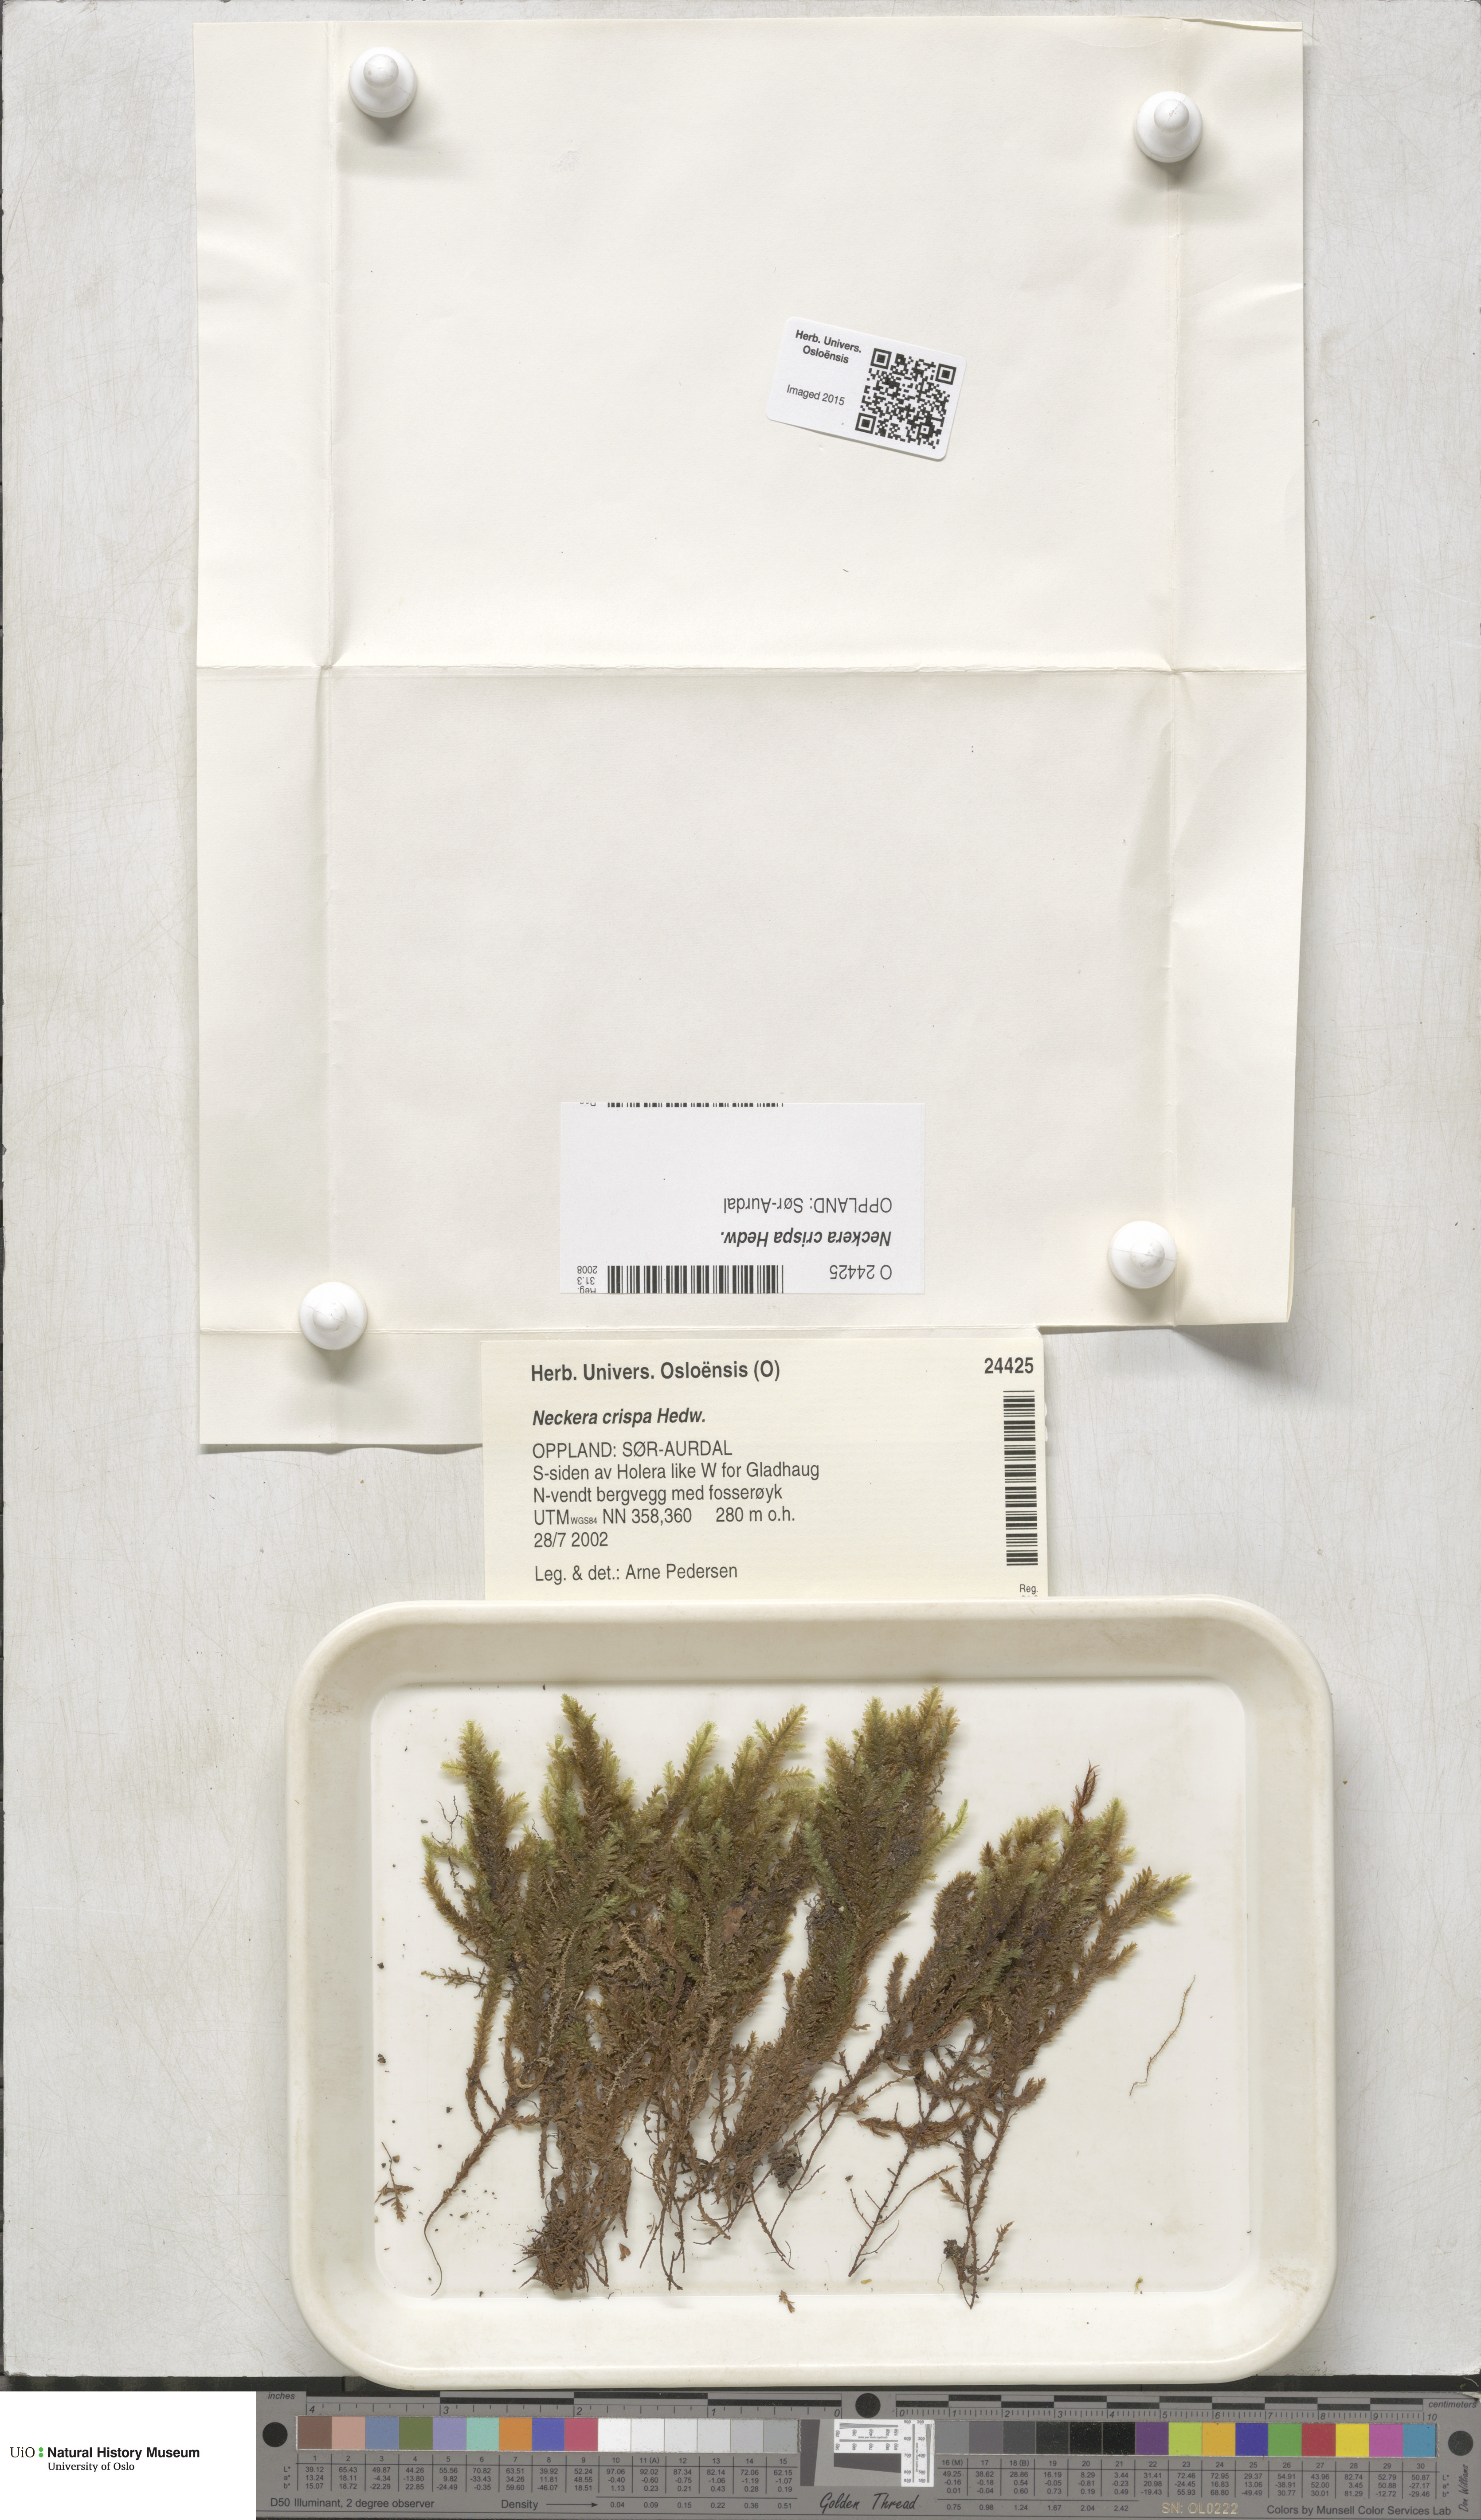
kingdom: Plantae
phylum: Bryophyta
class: Bryopsida
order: Hypnales
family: Neckeraceae
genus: Exsertotheca
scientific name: Exsertotheca crispa
